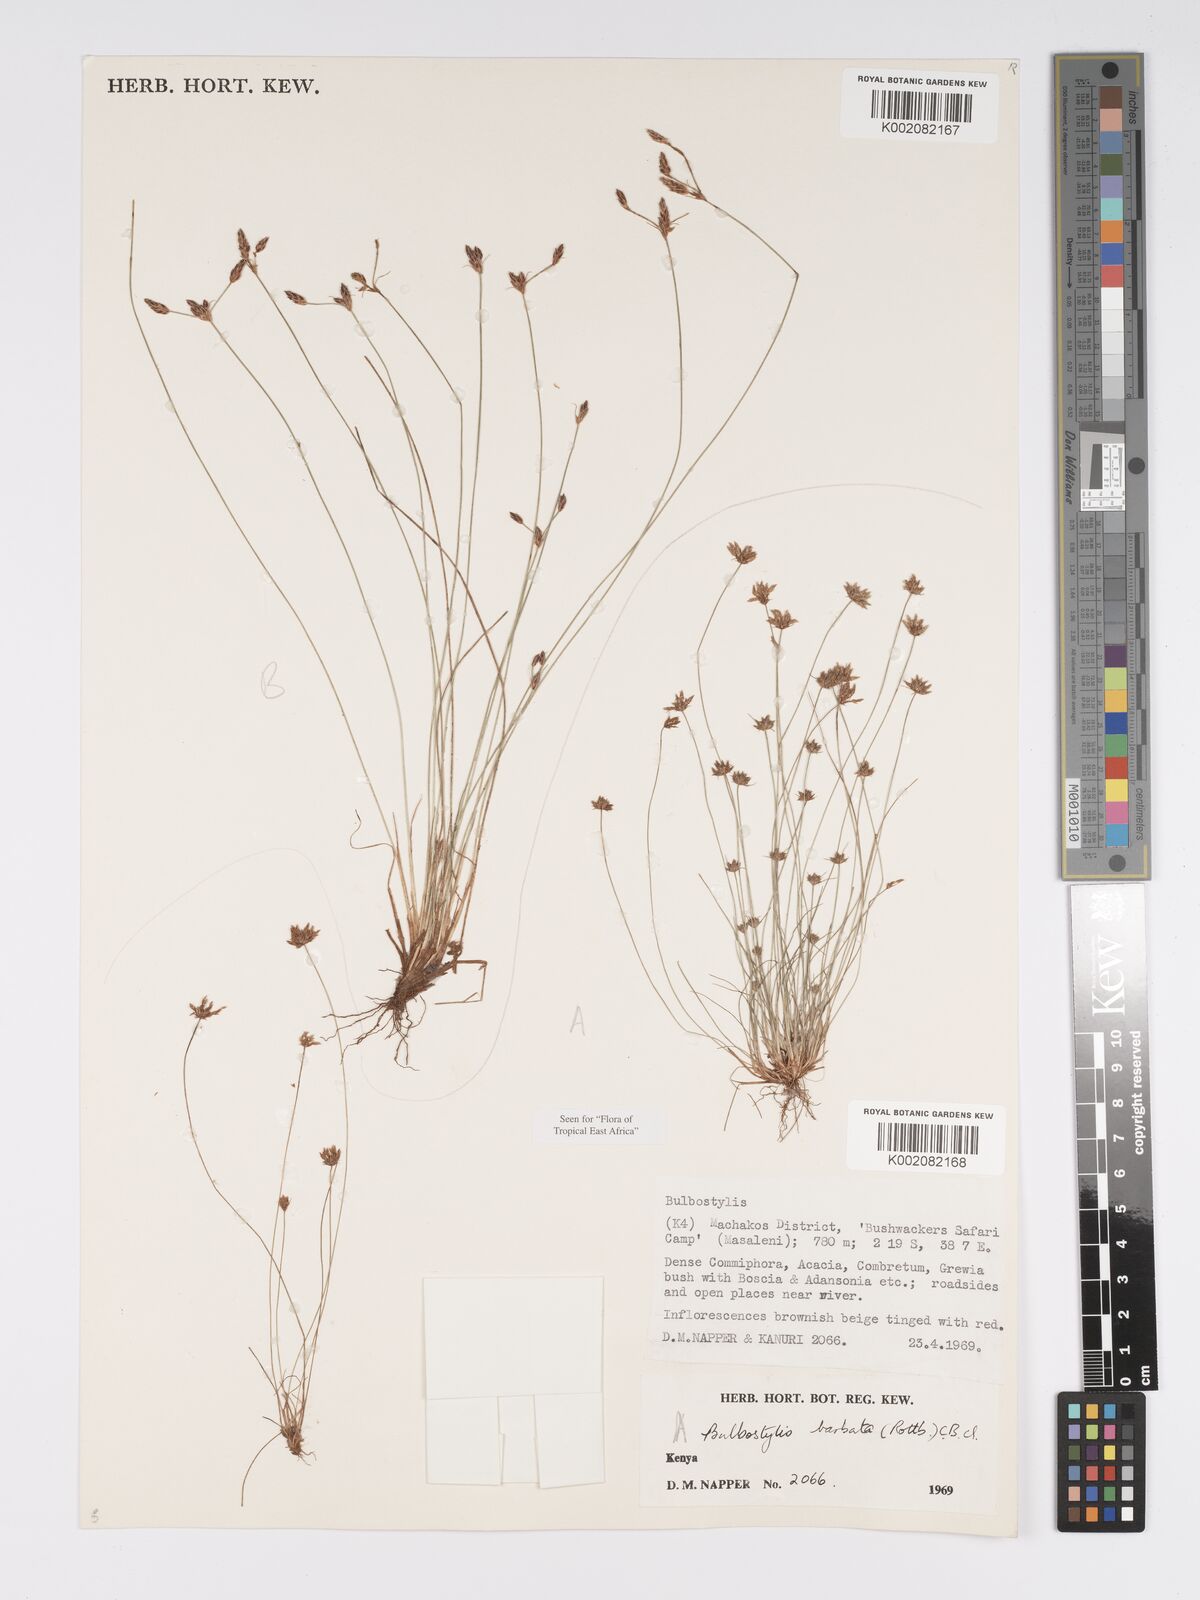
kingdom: Plantae
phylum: Tracheophyta
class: Liliopsida
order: Poales
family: Cyperaceae
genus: Bulbostylis
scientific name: Bulbostylis barbata
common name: Watergrass
